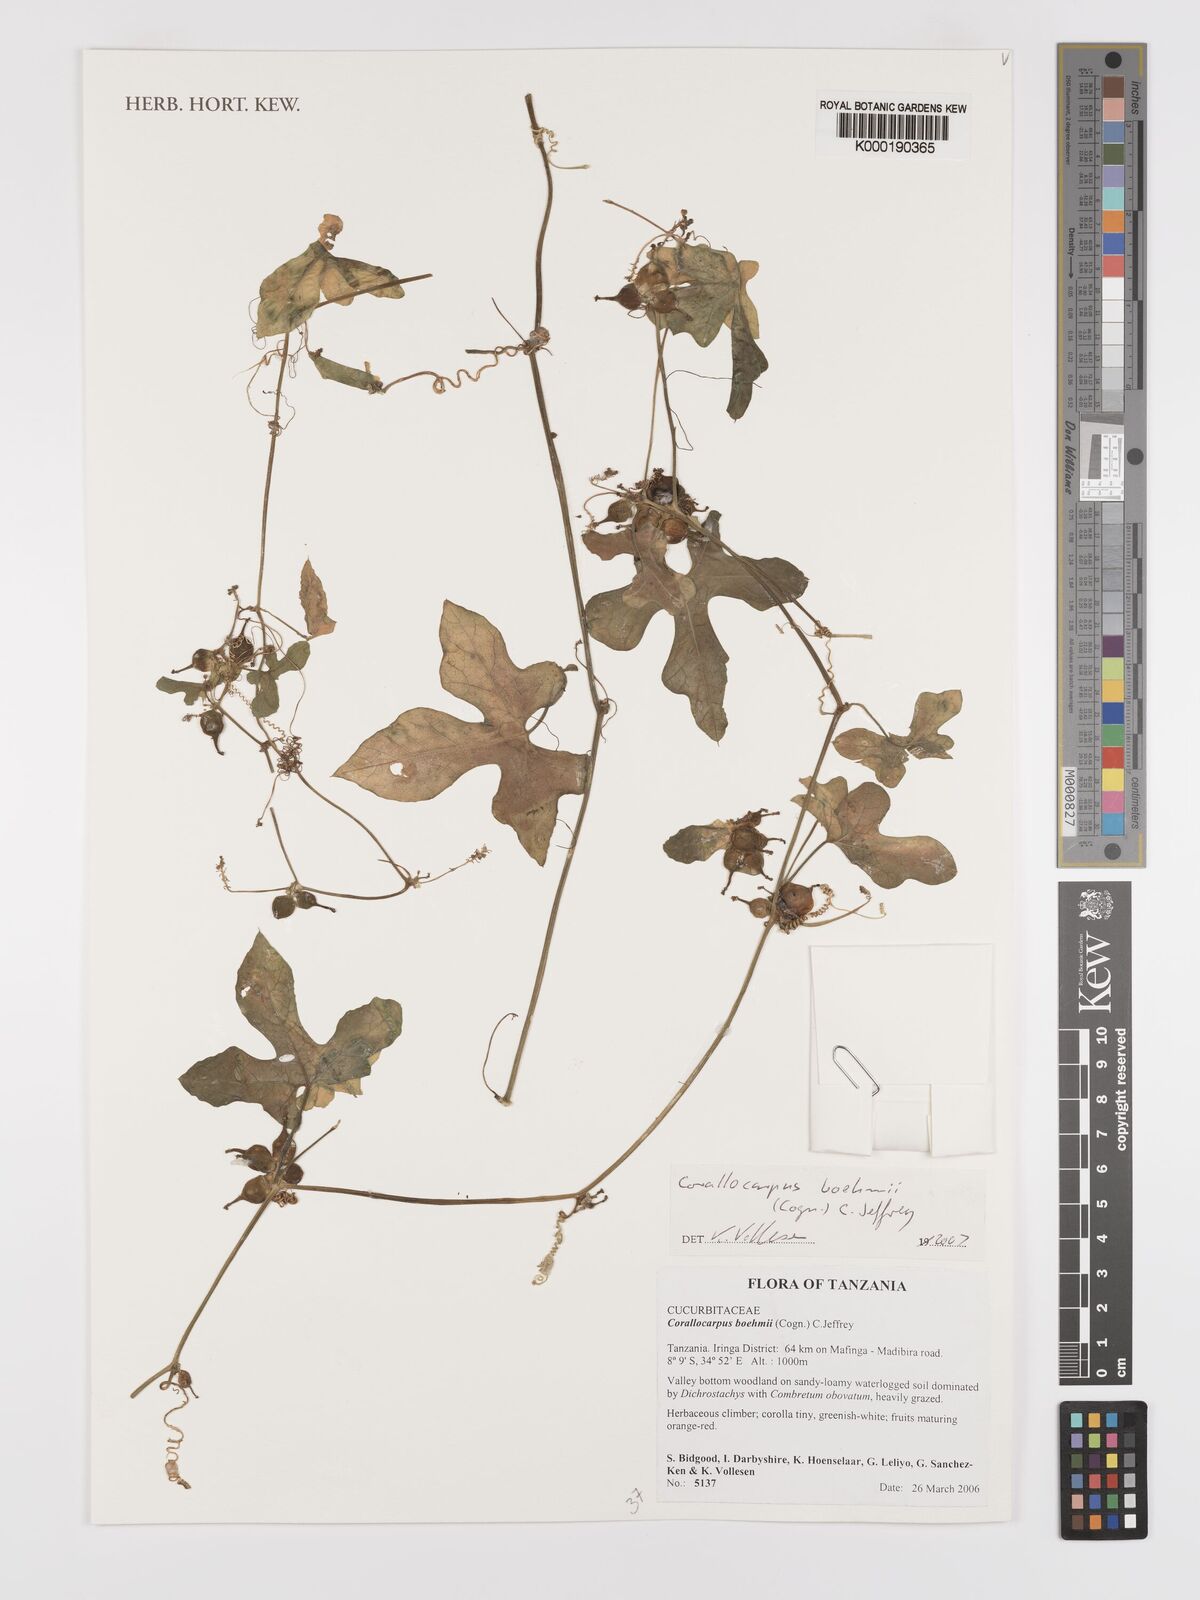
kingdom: Plantae
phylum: Tracheophyta
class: Magnoliopsida
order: Cucurbitales
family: Cucurbitaceae
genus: Corallocarpus
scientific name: Corallocarpus boehmii
